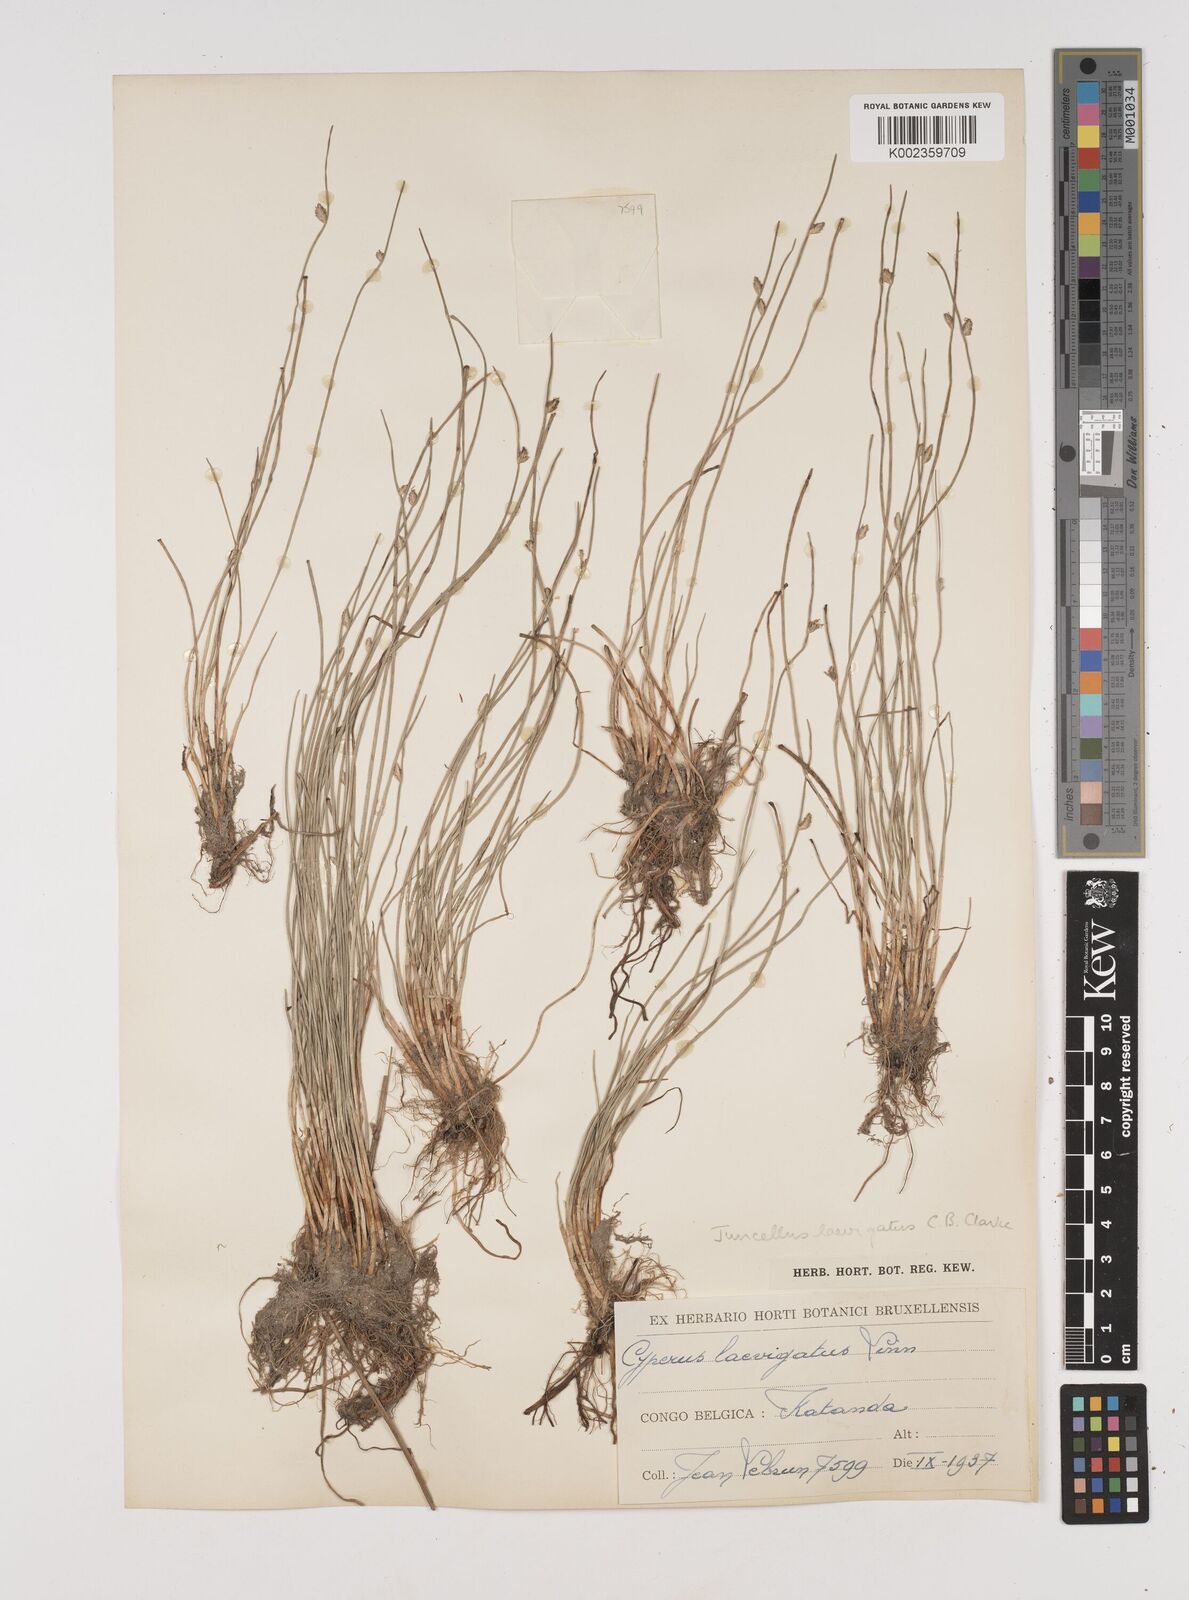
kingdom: Plantae
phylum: Tracheophyta
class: Liliopsida
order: Poales
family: Cyperaceae
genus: Cyperus
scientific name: Cyperus laevigatus
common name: Smooth flat sedge
